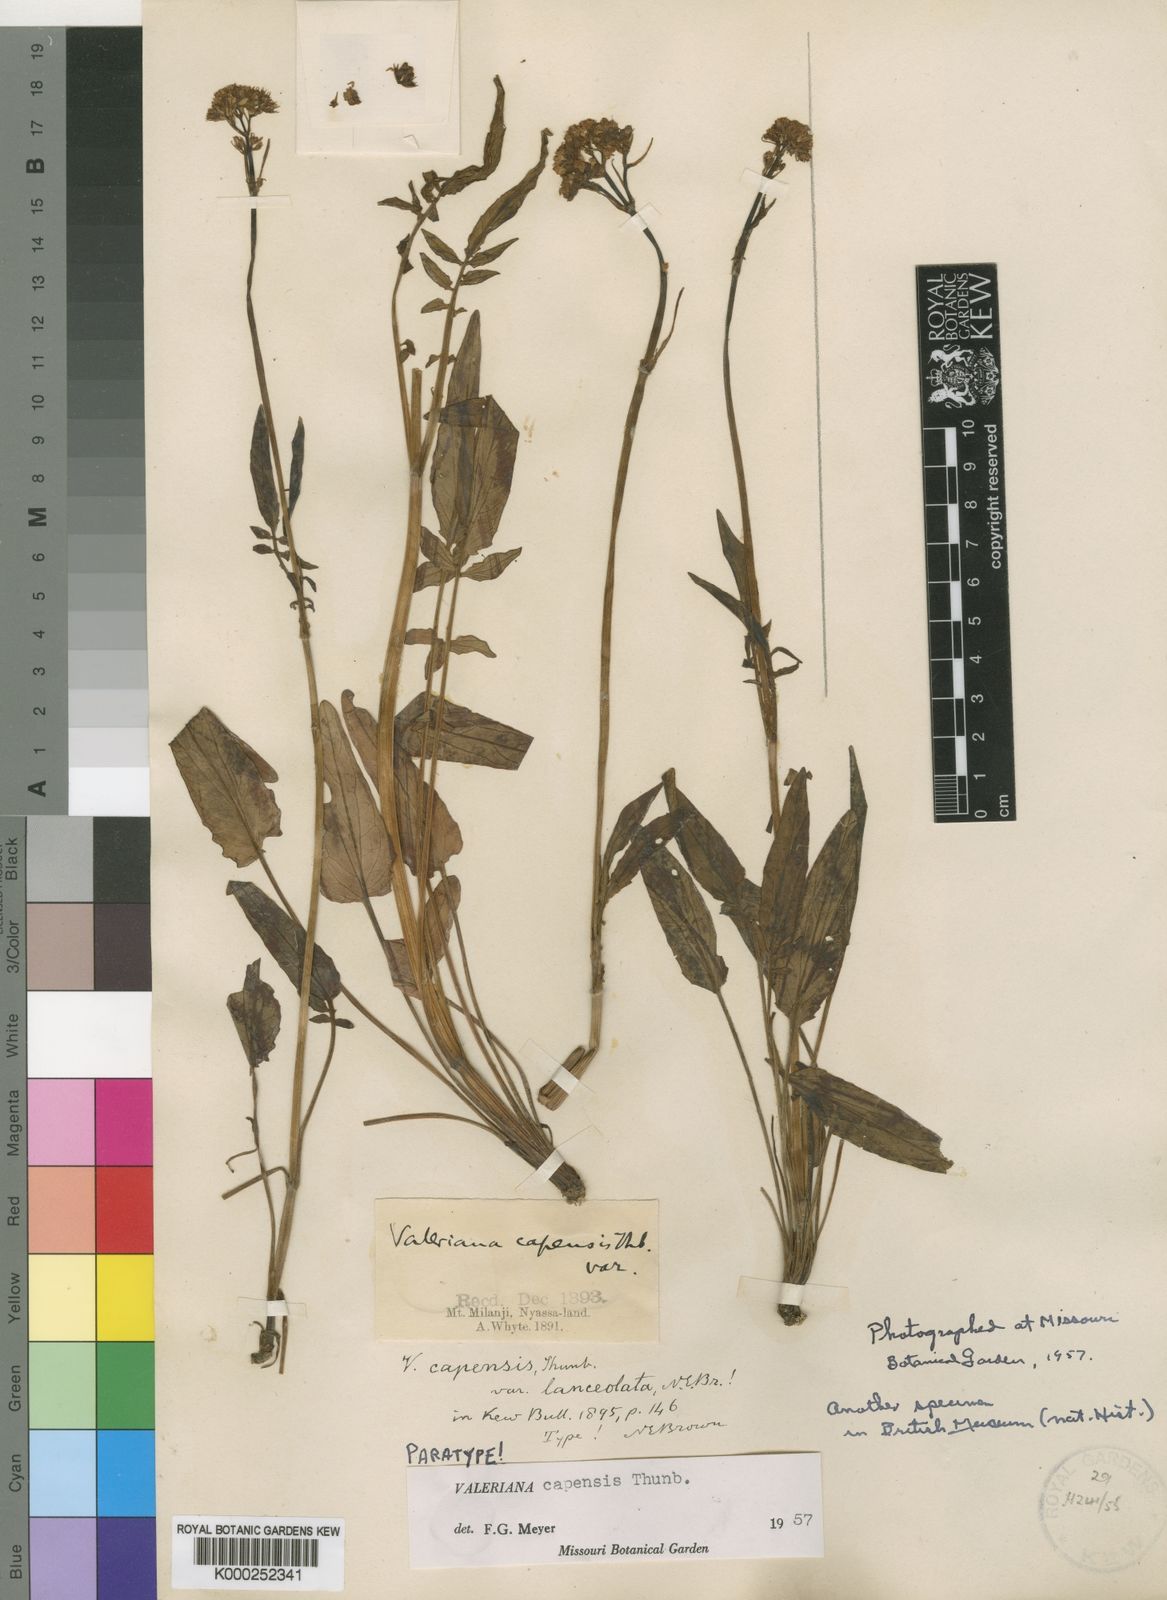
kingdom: Plantae
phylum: Tracheophyta
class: Magnoliopsida
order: Dipsacales
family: Caprifoliaceae
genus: Valeriana
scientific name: Valeriana capensis
